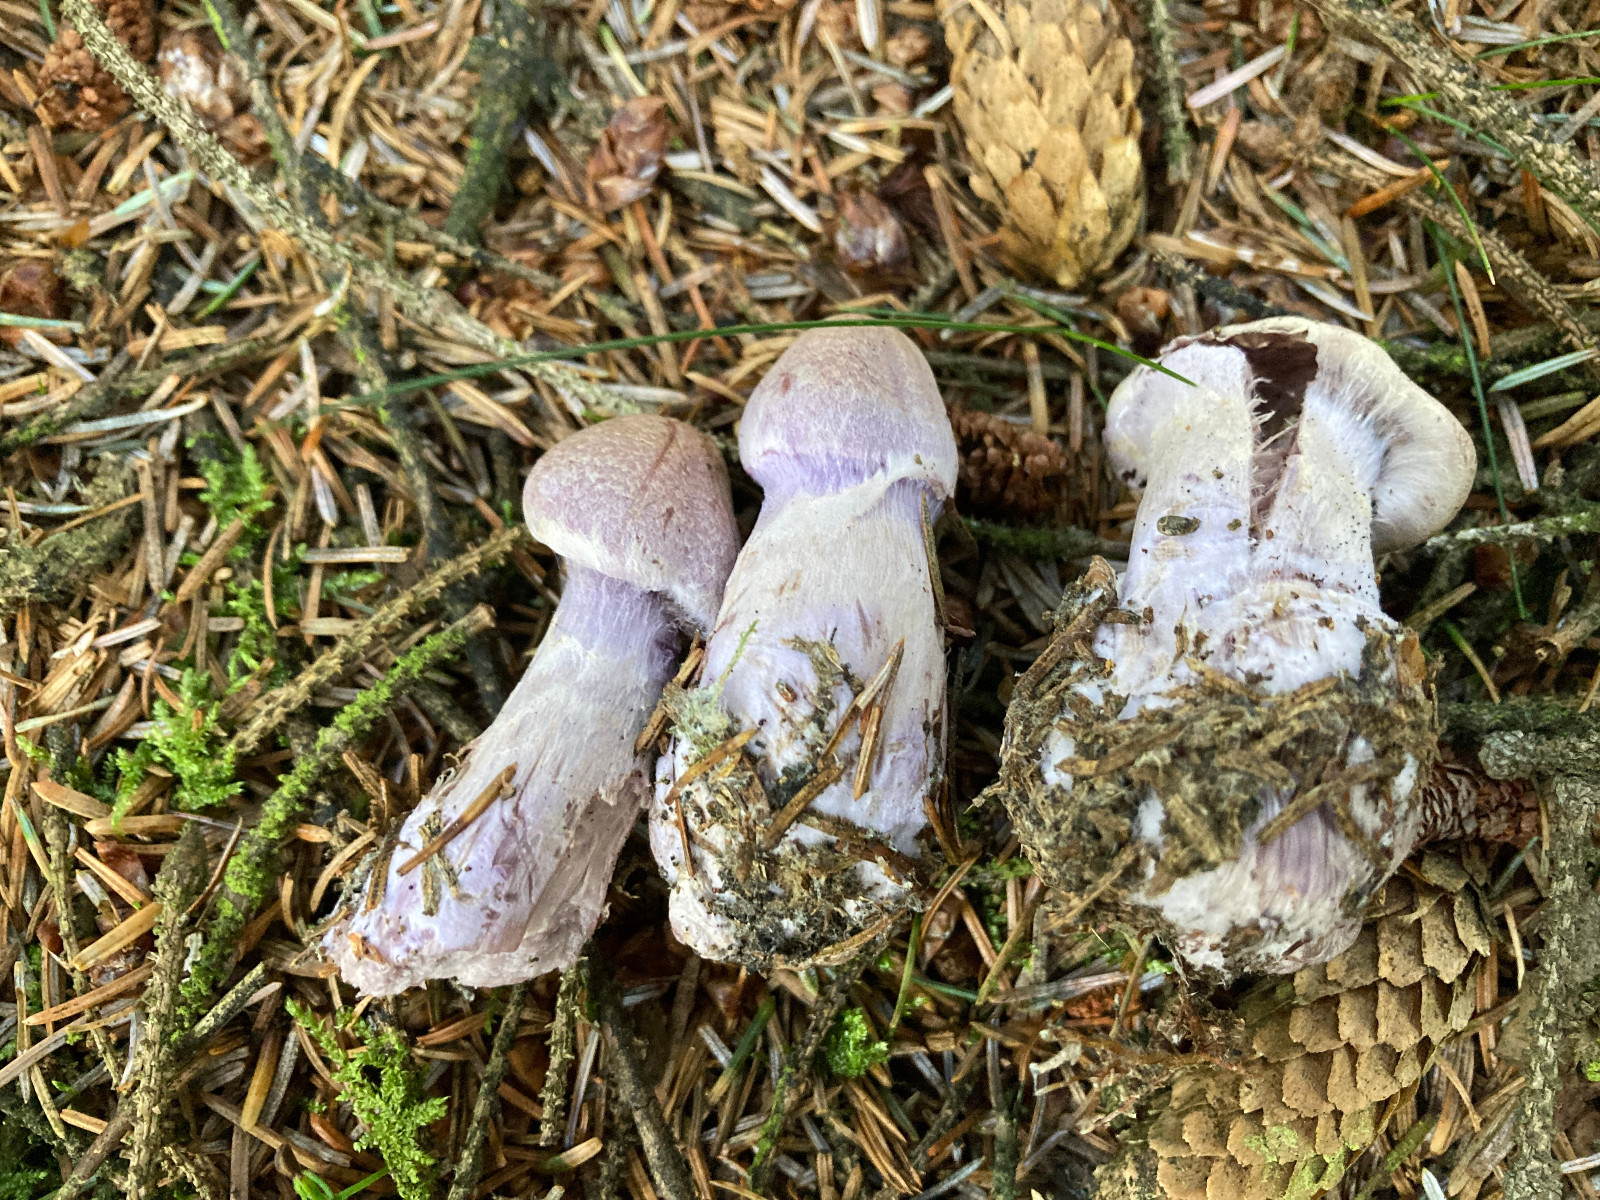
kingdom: Fungi
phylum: Basidiomycota
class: Agaricomycetes
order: Agaricales
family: Cortinariaceae
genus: Cortinarius
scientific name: Cortinarius malachius
